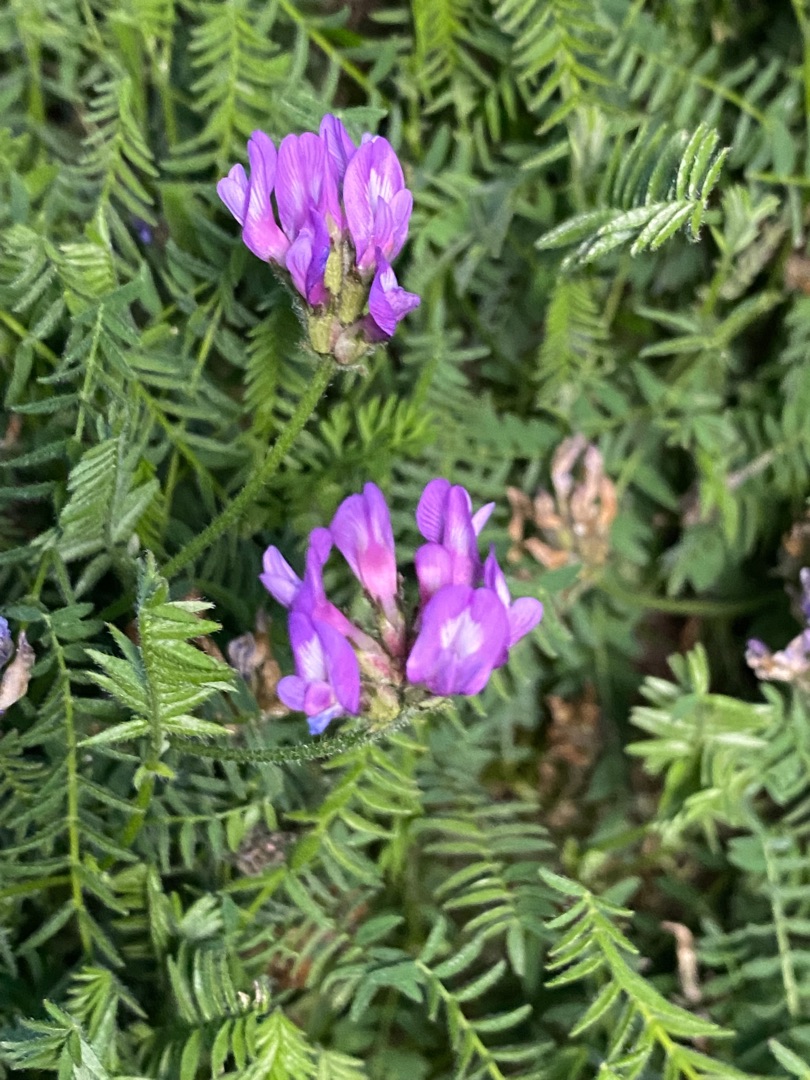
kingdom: Plantae
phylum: Tracheophyta
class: Magnoliopsida
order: Fabales
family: Fabaceae
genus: Astragalus
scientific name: Astragalus danicus
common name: Dansk astragel
